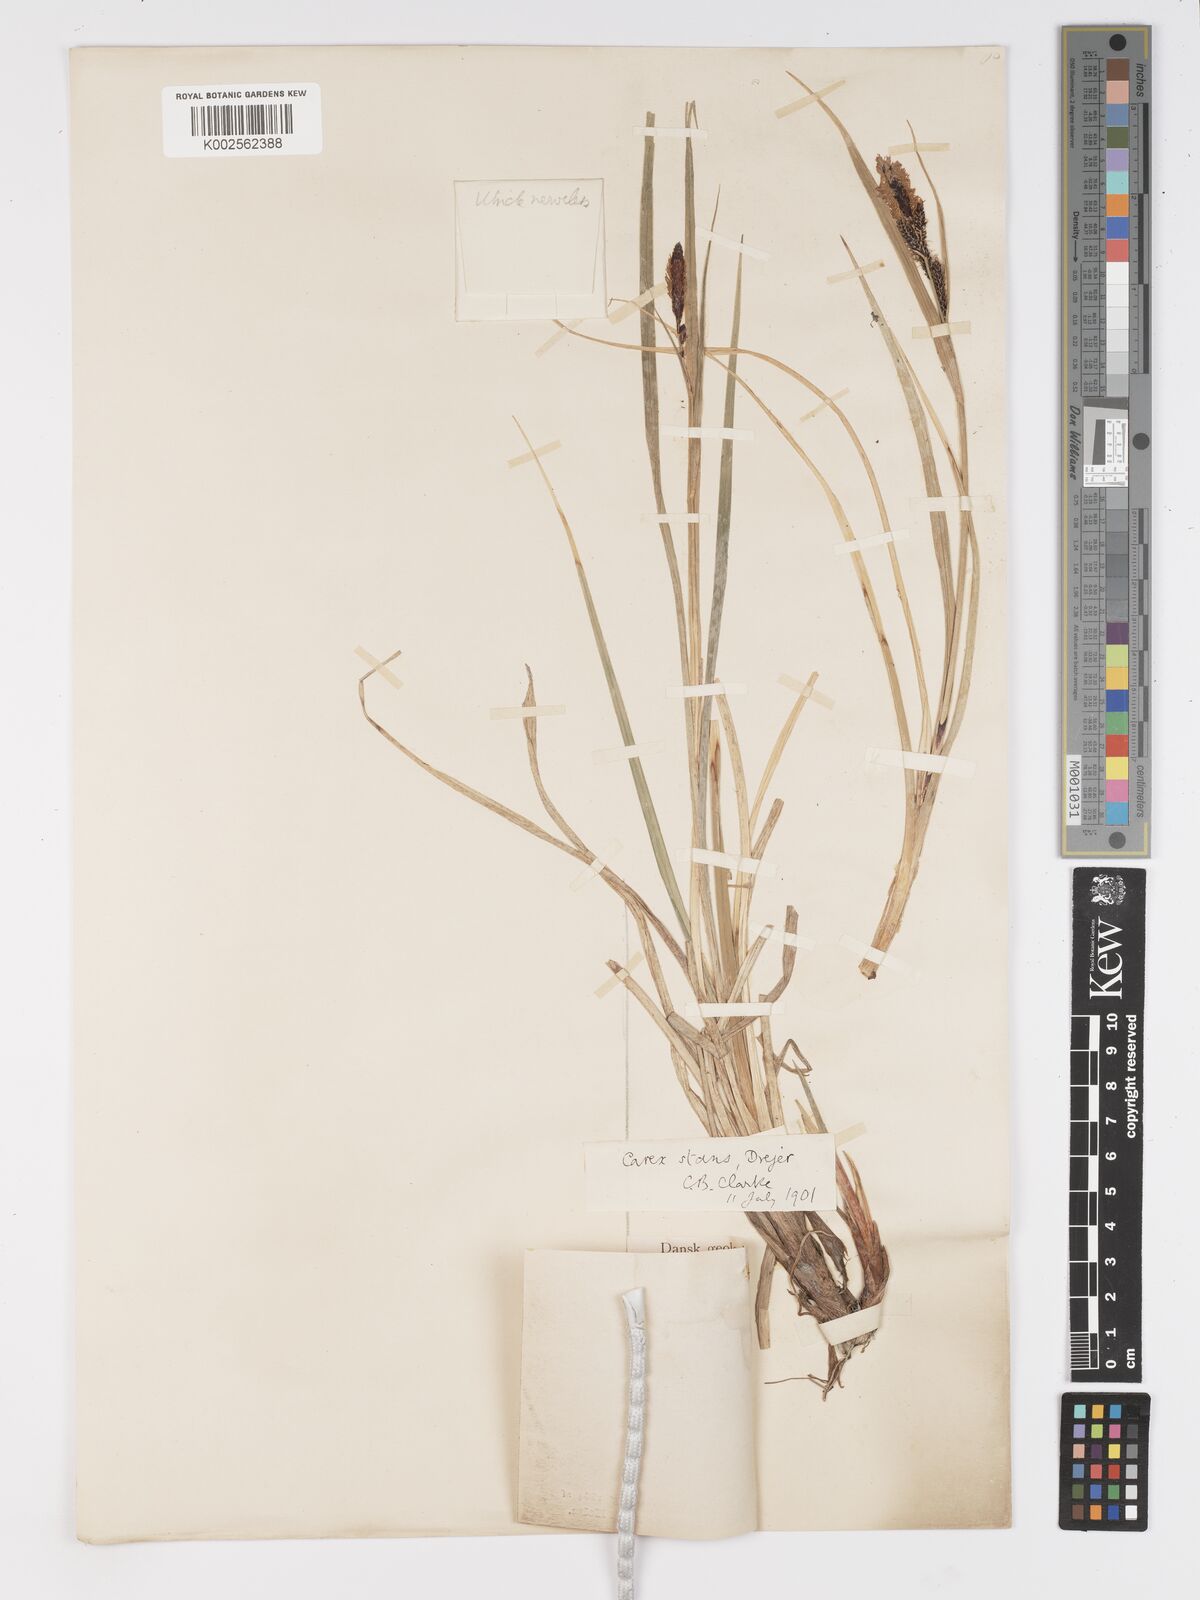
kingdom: Plantae
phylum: Tracheophyta
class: Liliopsida
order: Poales
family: Cyperaceae
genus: Carex
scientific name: Carex aquatilis
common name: Water sedge
